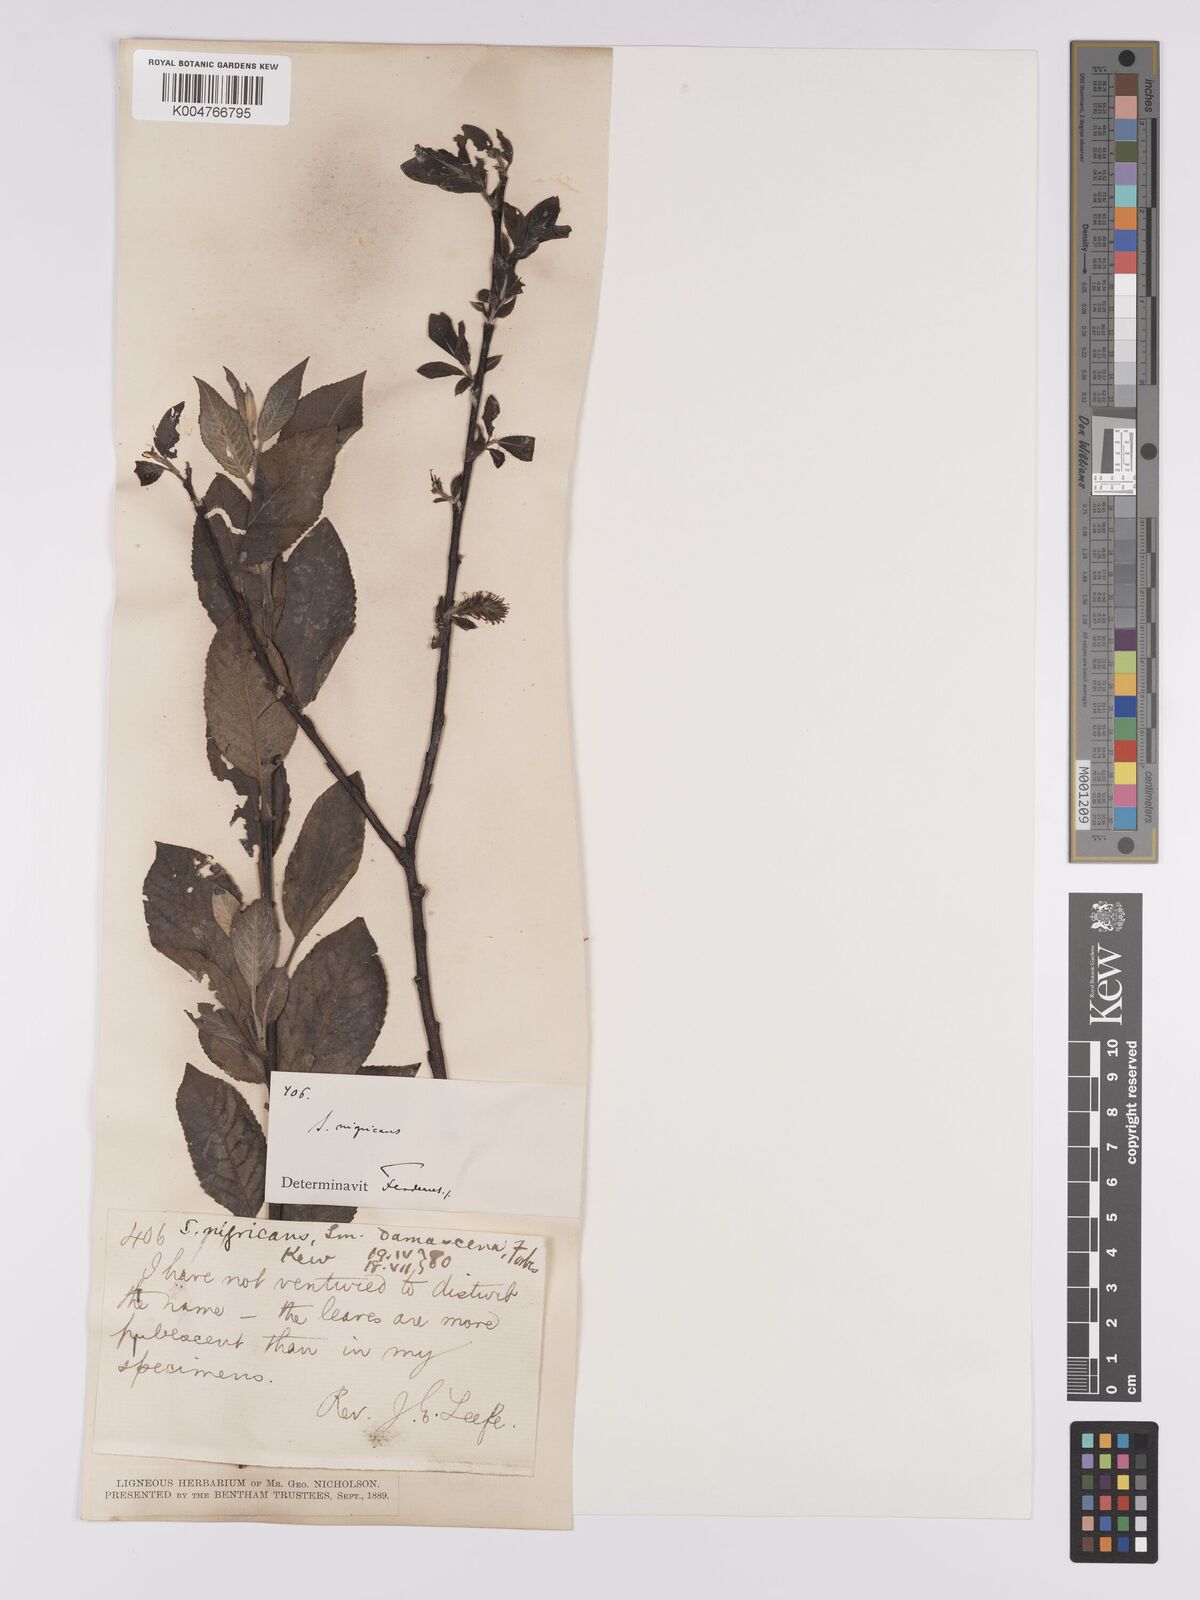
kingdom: Plantae
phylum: Tracheophyta
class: Magnoliopsida
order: Malpighiales
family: Salicaceae
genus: Salix
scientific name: Salix myrsinifolia
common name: Dark-leaved willow
